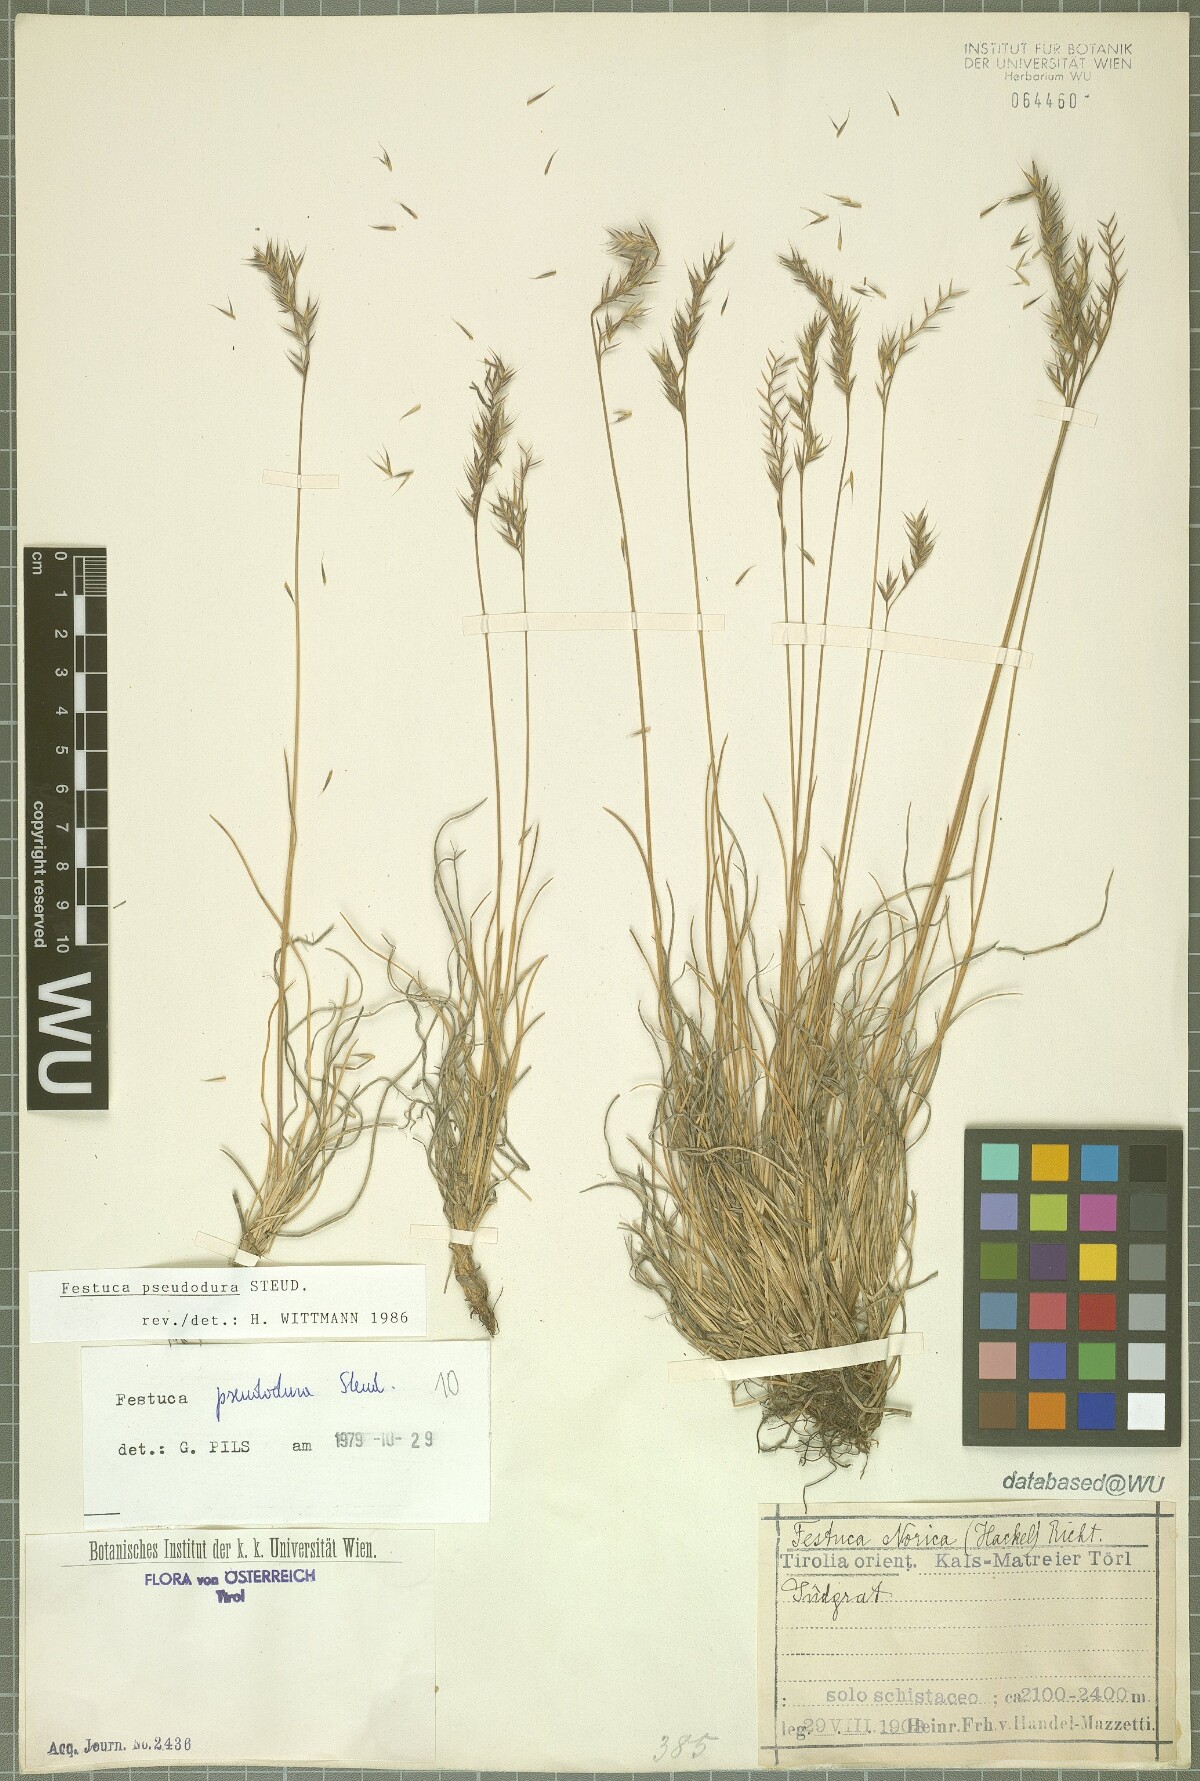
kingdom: Plantae
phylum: Tracheophyta
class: Liliopsida
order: Poales
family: Poaceae
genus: Festuca
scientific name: Festuca pseudodura
